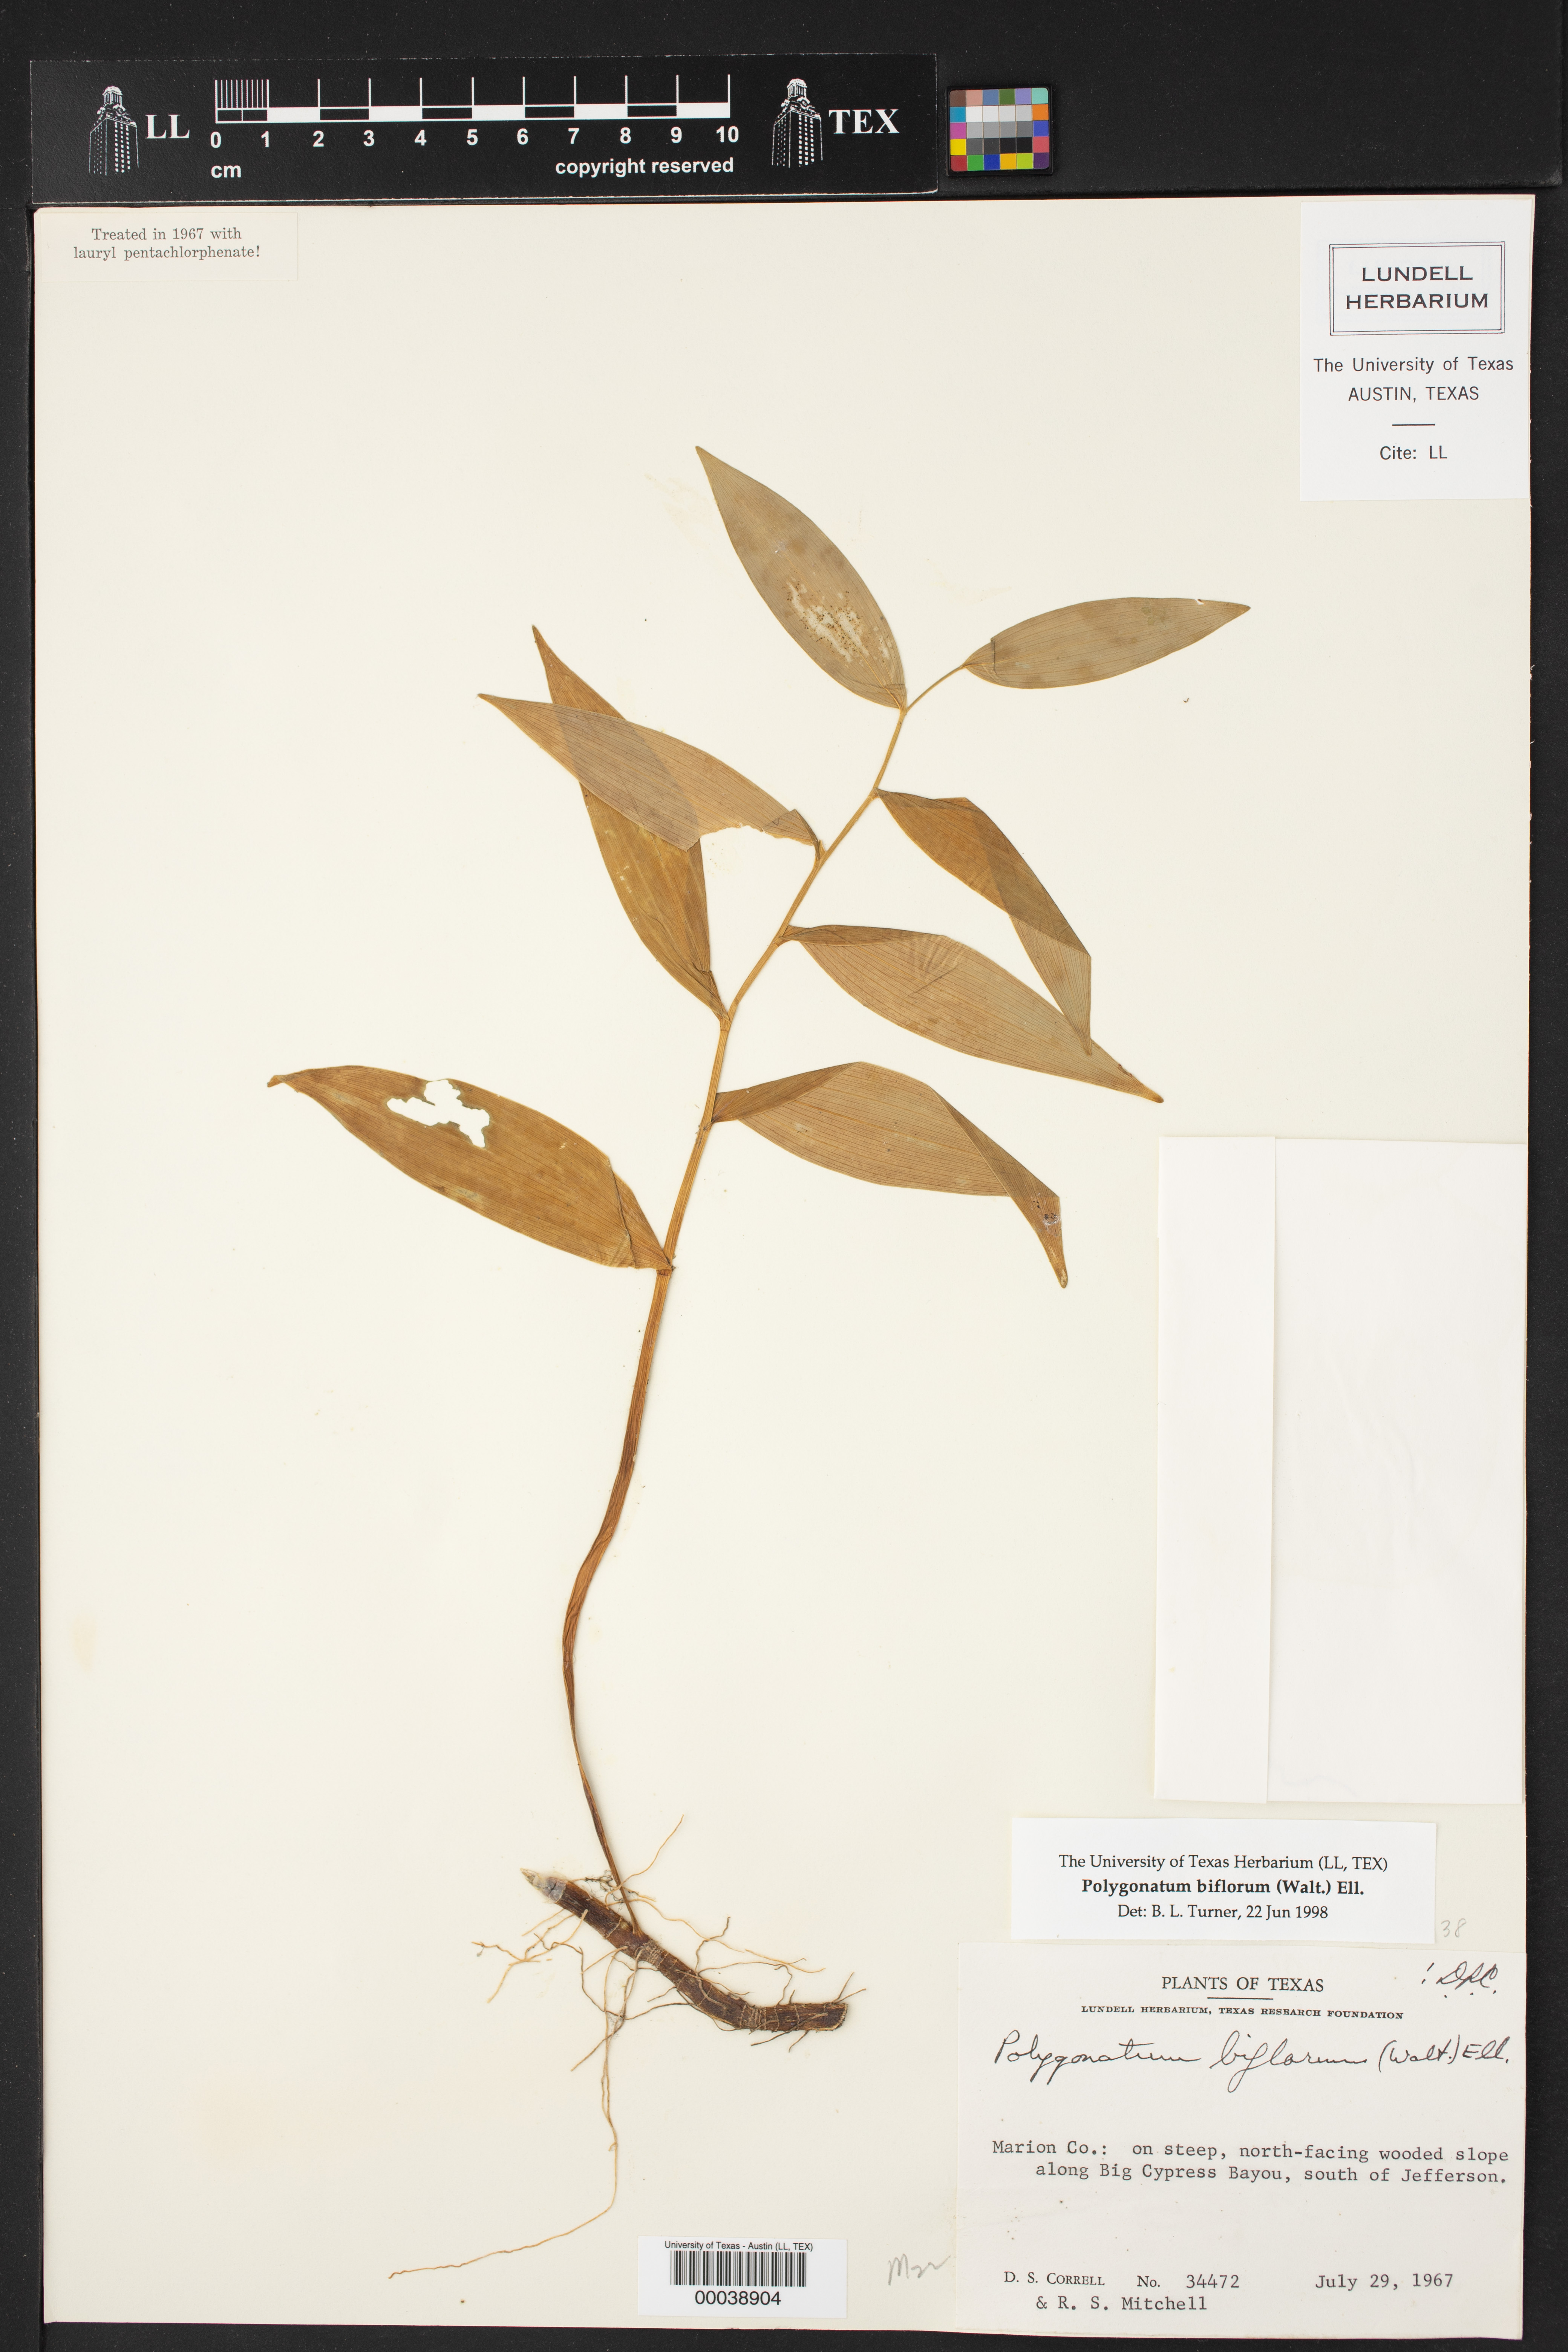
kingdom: Plantae
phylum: Tracheophyta
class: Liliopsida
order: Asparagales
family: Asparagaceae
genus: Polygonatum
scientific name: Polygonatum biflorum
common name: American solomon's-seal
